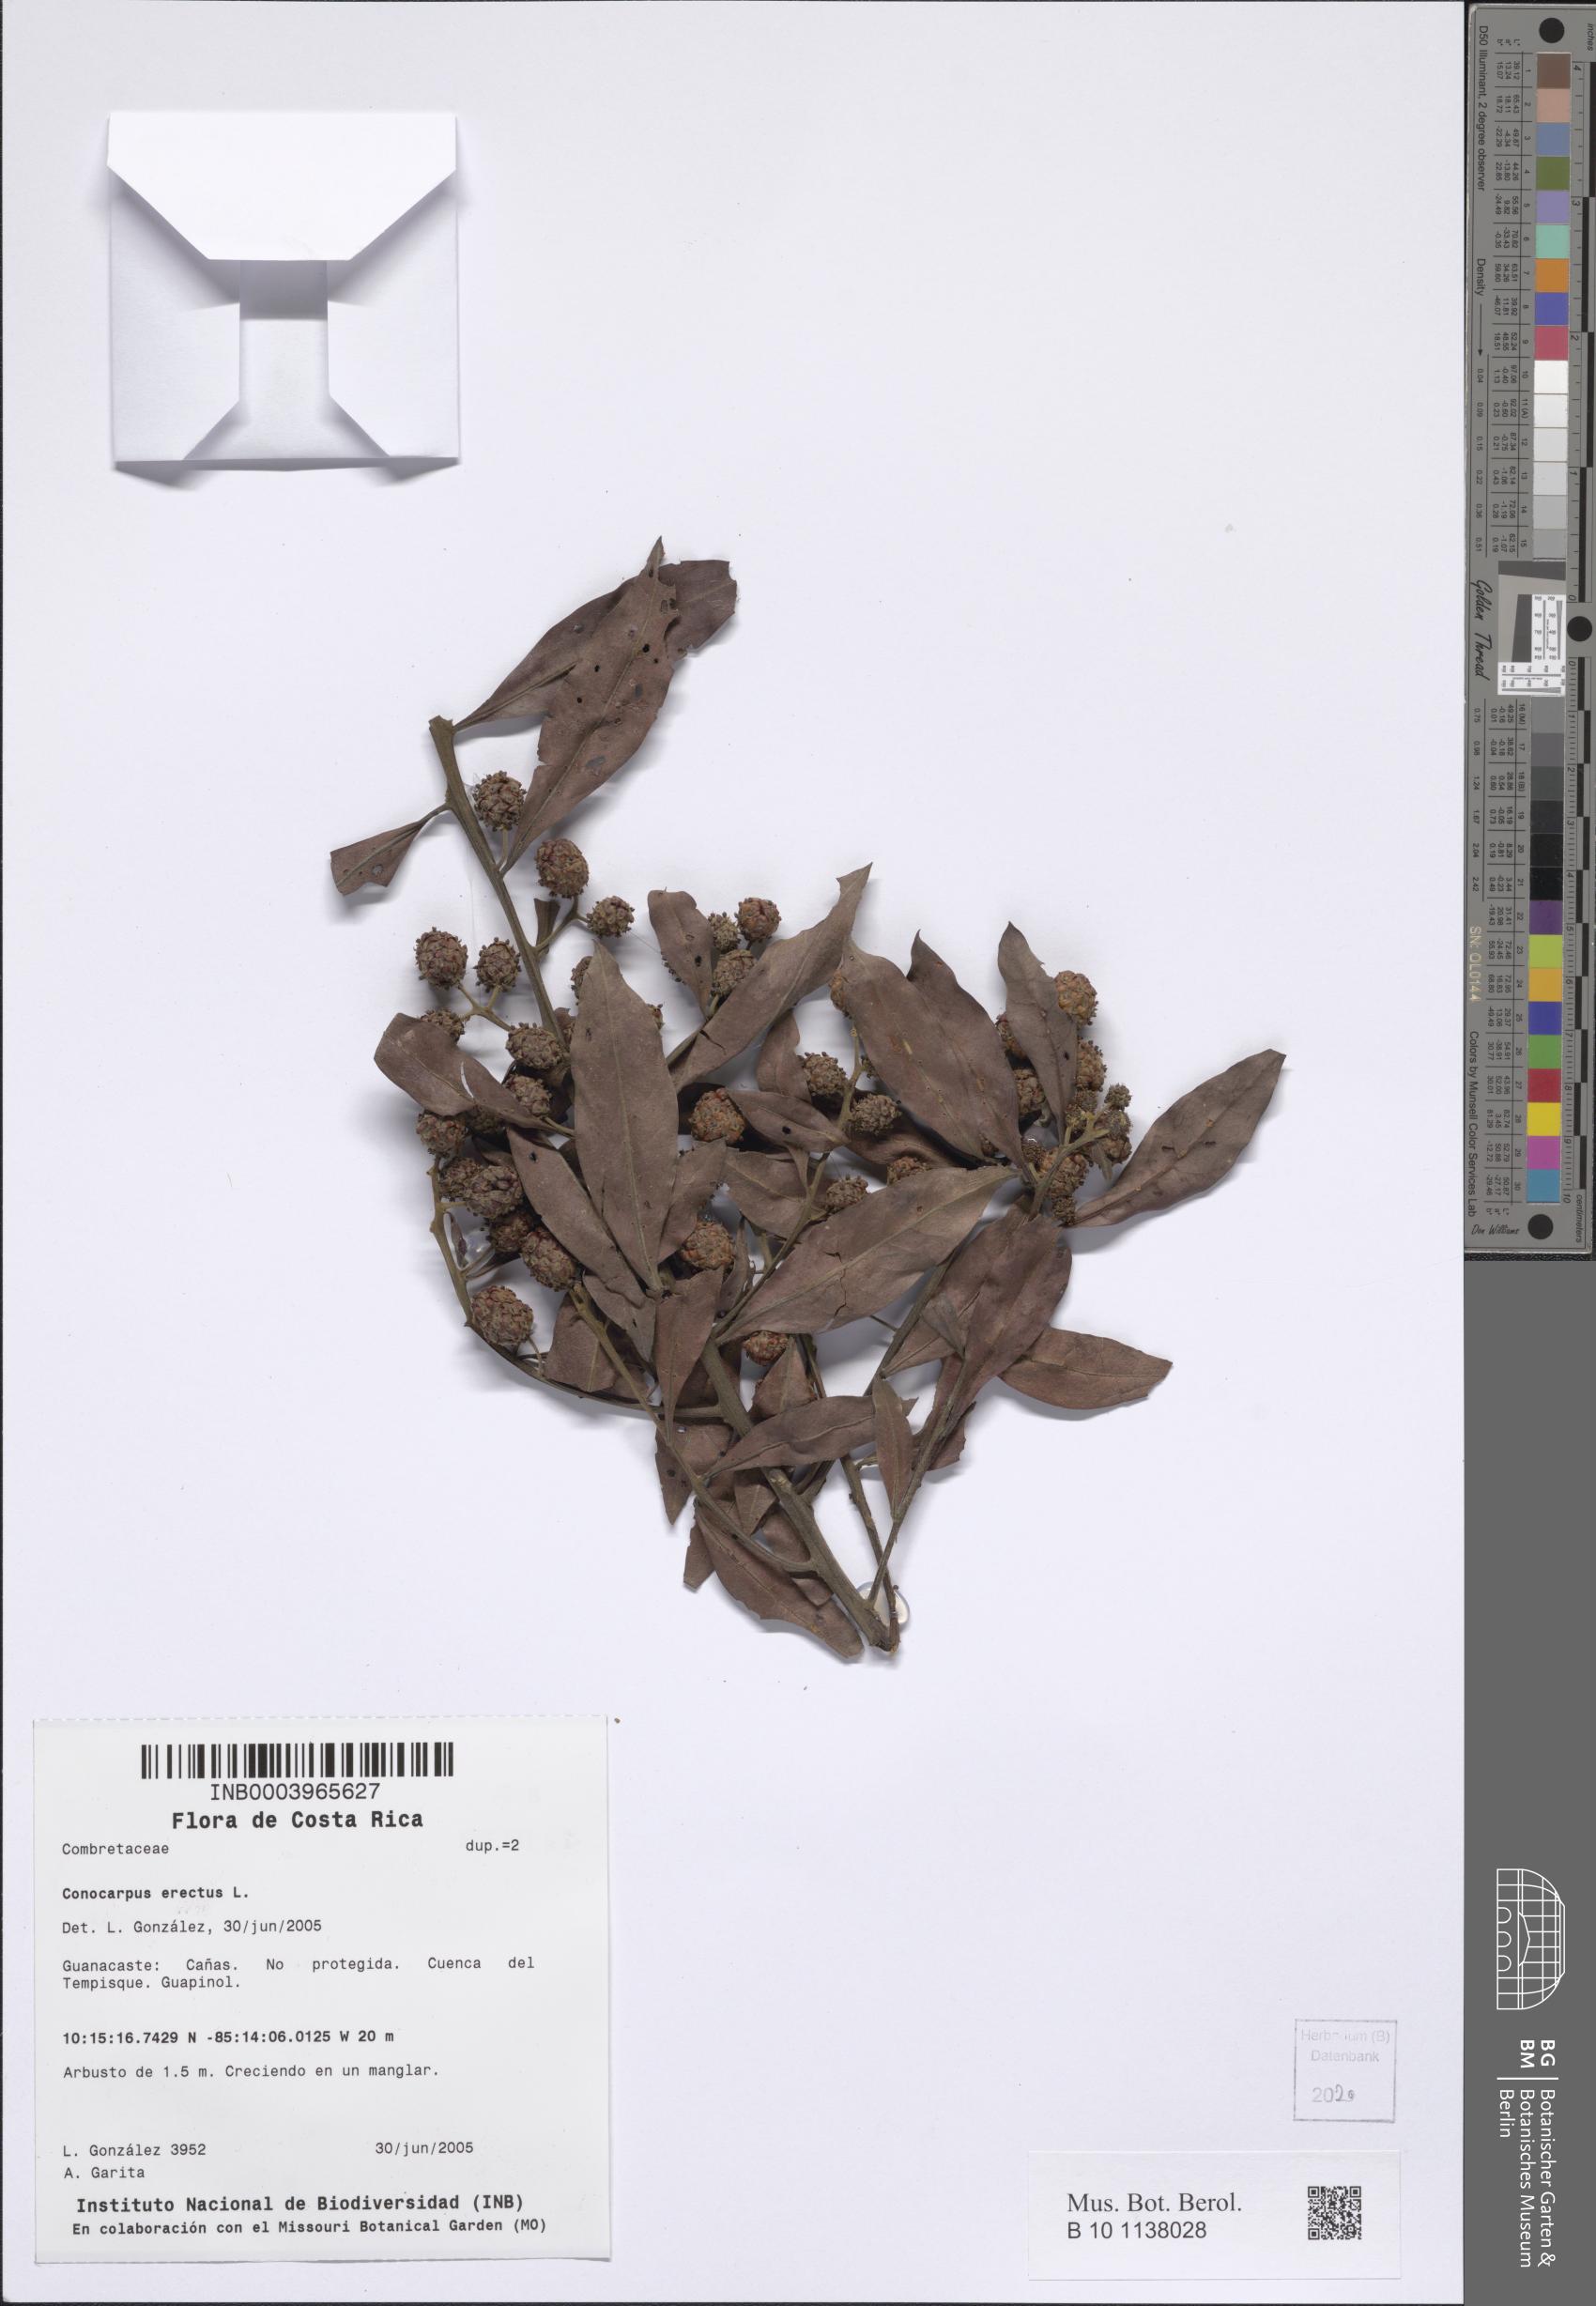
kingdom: Plantae
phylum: Tracheophyta
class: Magnoliopsida
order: Myrtales
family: Combretaceae
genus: Conocarpus
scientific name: Conocarpus erectus
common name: Button mangrove
